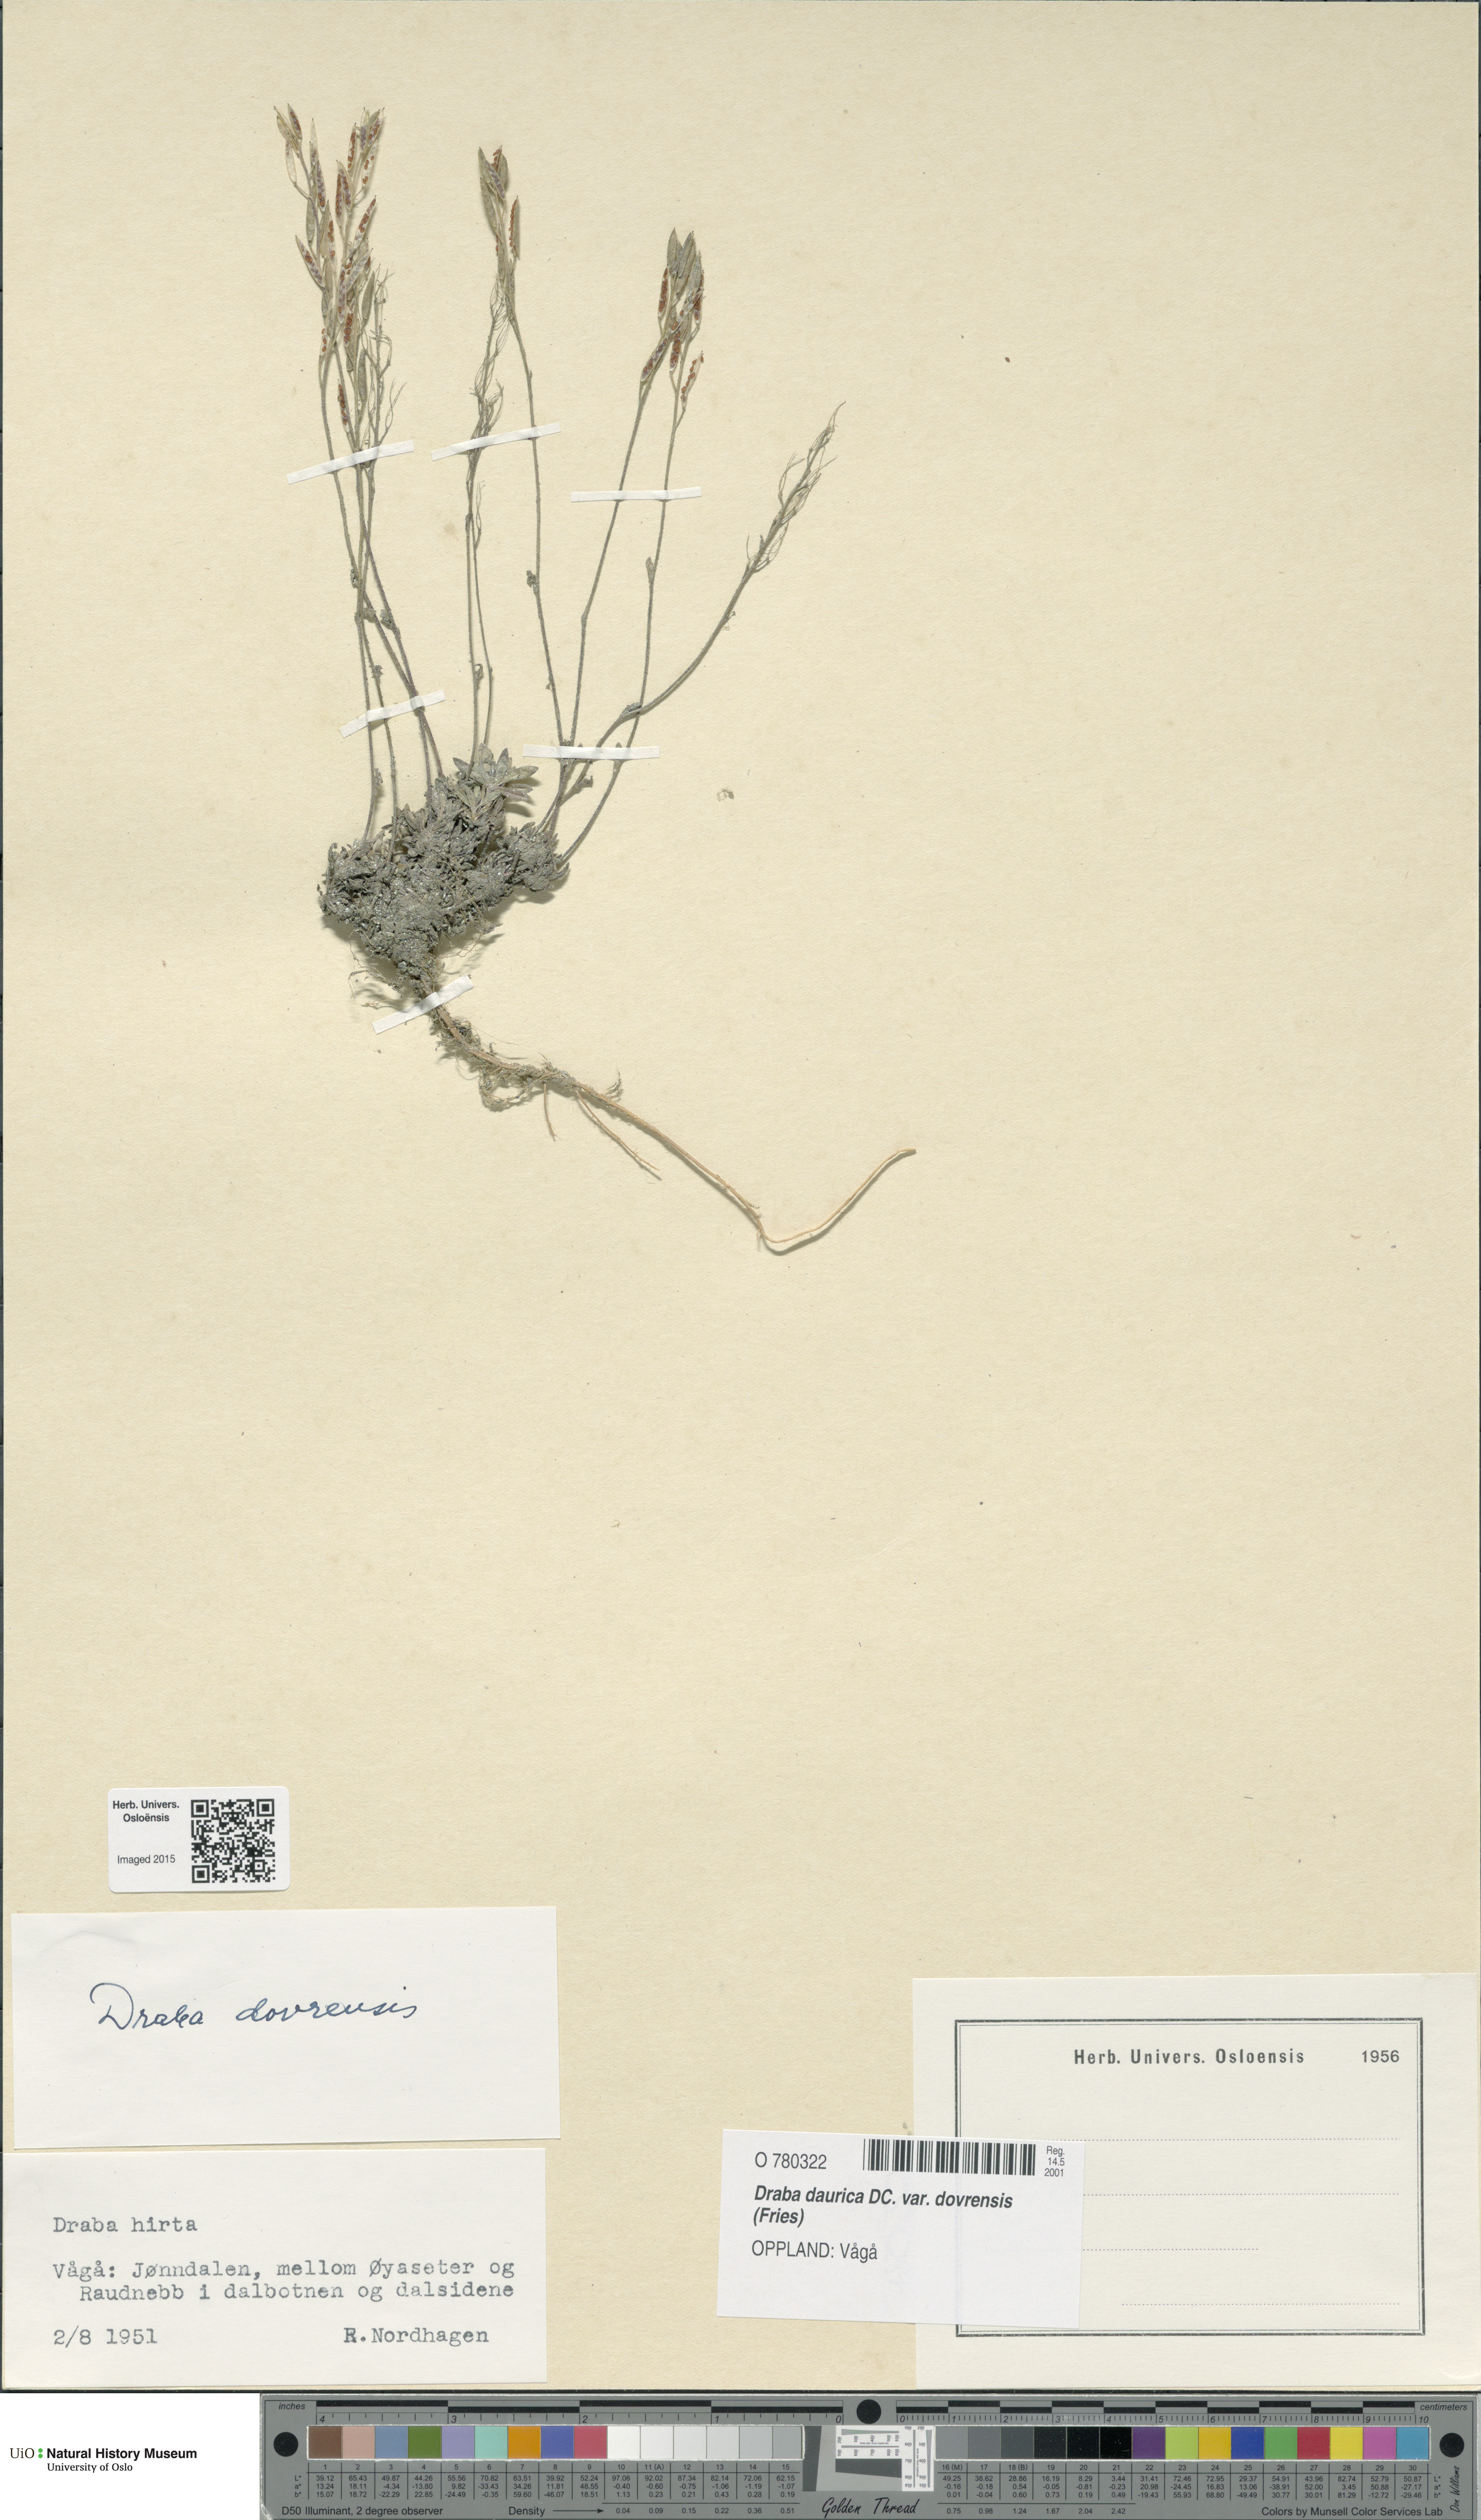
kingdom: Plantae
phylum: Tracheophyta
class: Magnoliopsida
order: Brassicales
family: Brassicaceae
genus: Draba
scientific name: Draba glabella
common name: Glaucous draba
